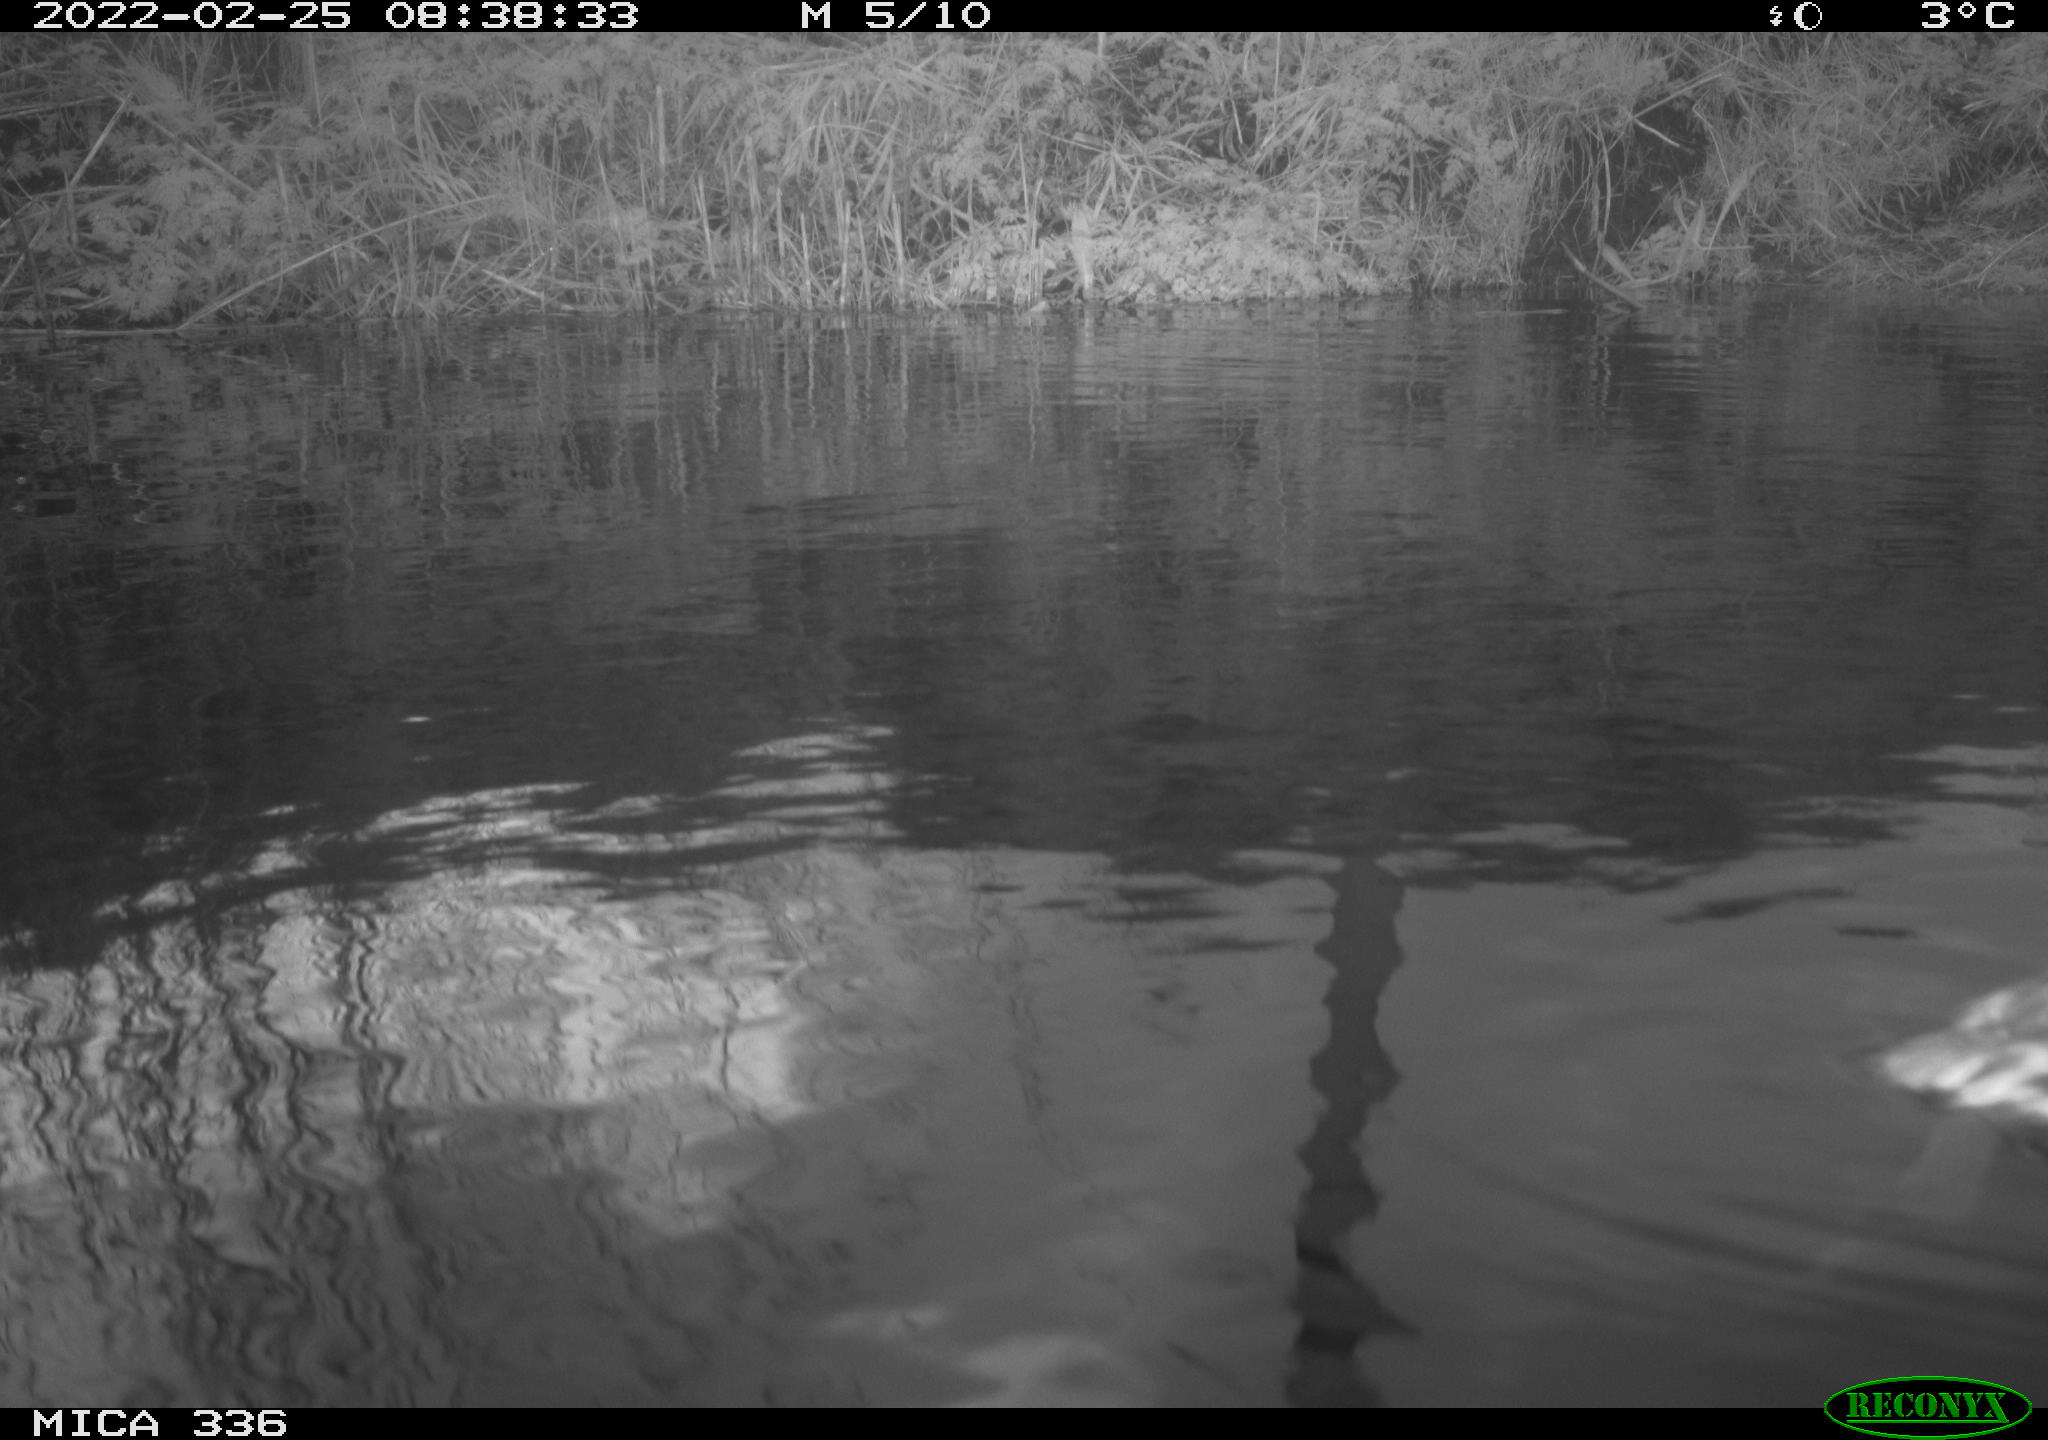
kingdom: Animalia
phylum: Chordata
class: Aves
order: Suliformes
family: Phalacrocoracidae
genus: Phalacrocorax
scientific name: Phalacrocorax carbo
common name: Great cormorant
